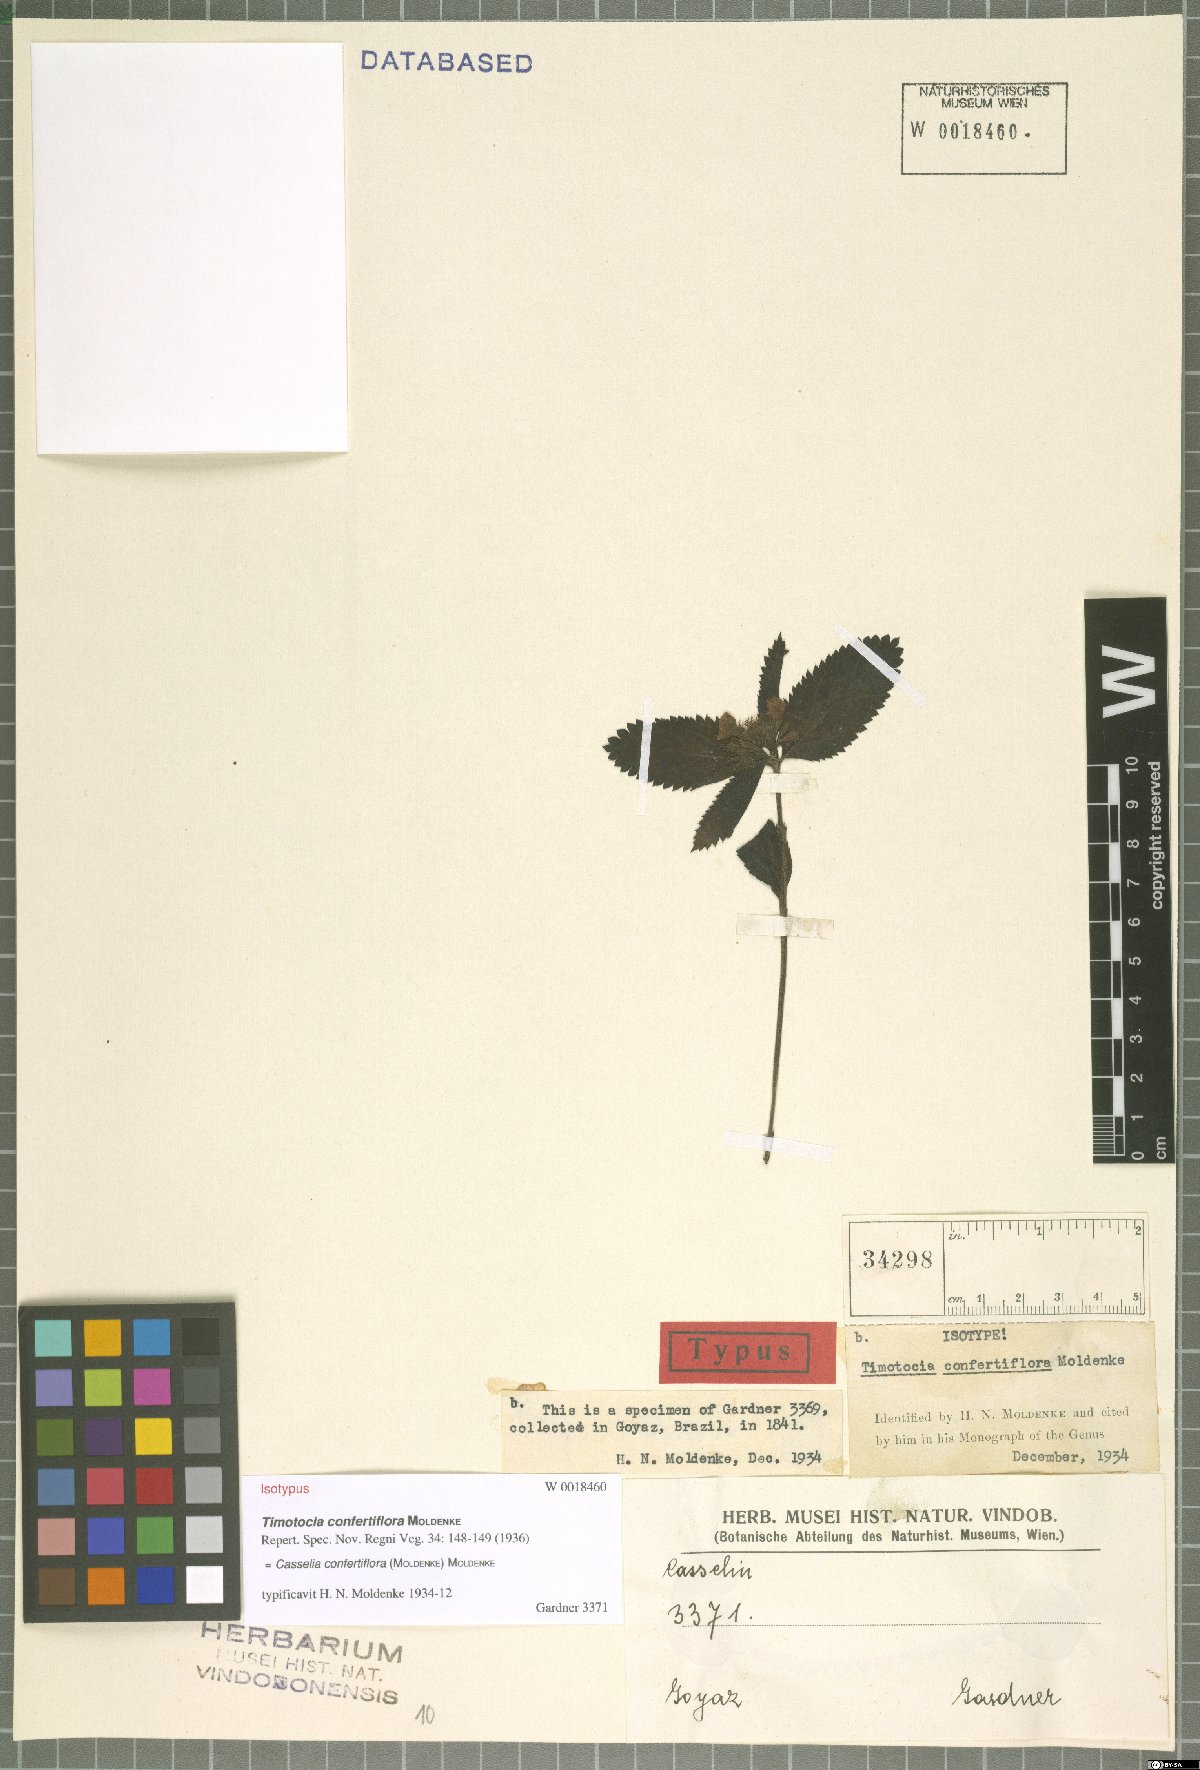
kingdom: Plantae
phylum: Tracheophyta
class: Magnoliopsida
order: Lamiales
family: Verbenaceae
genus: Casselia
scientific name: Casselia confertiflora
